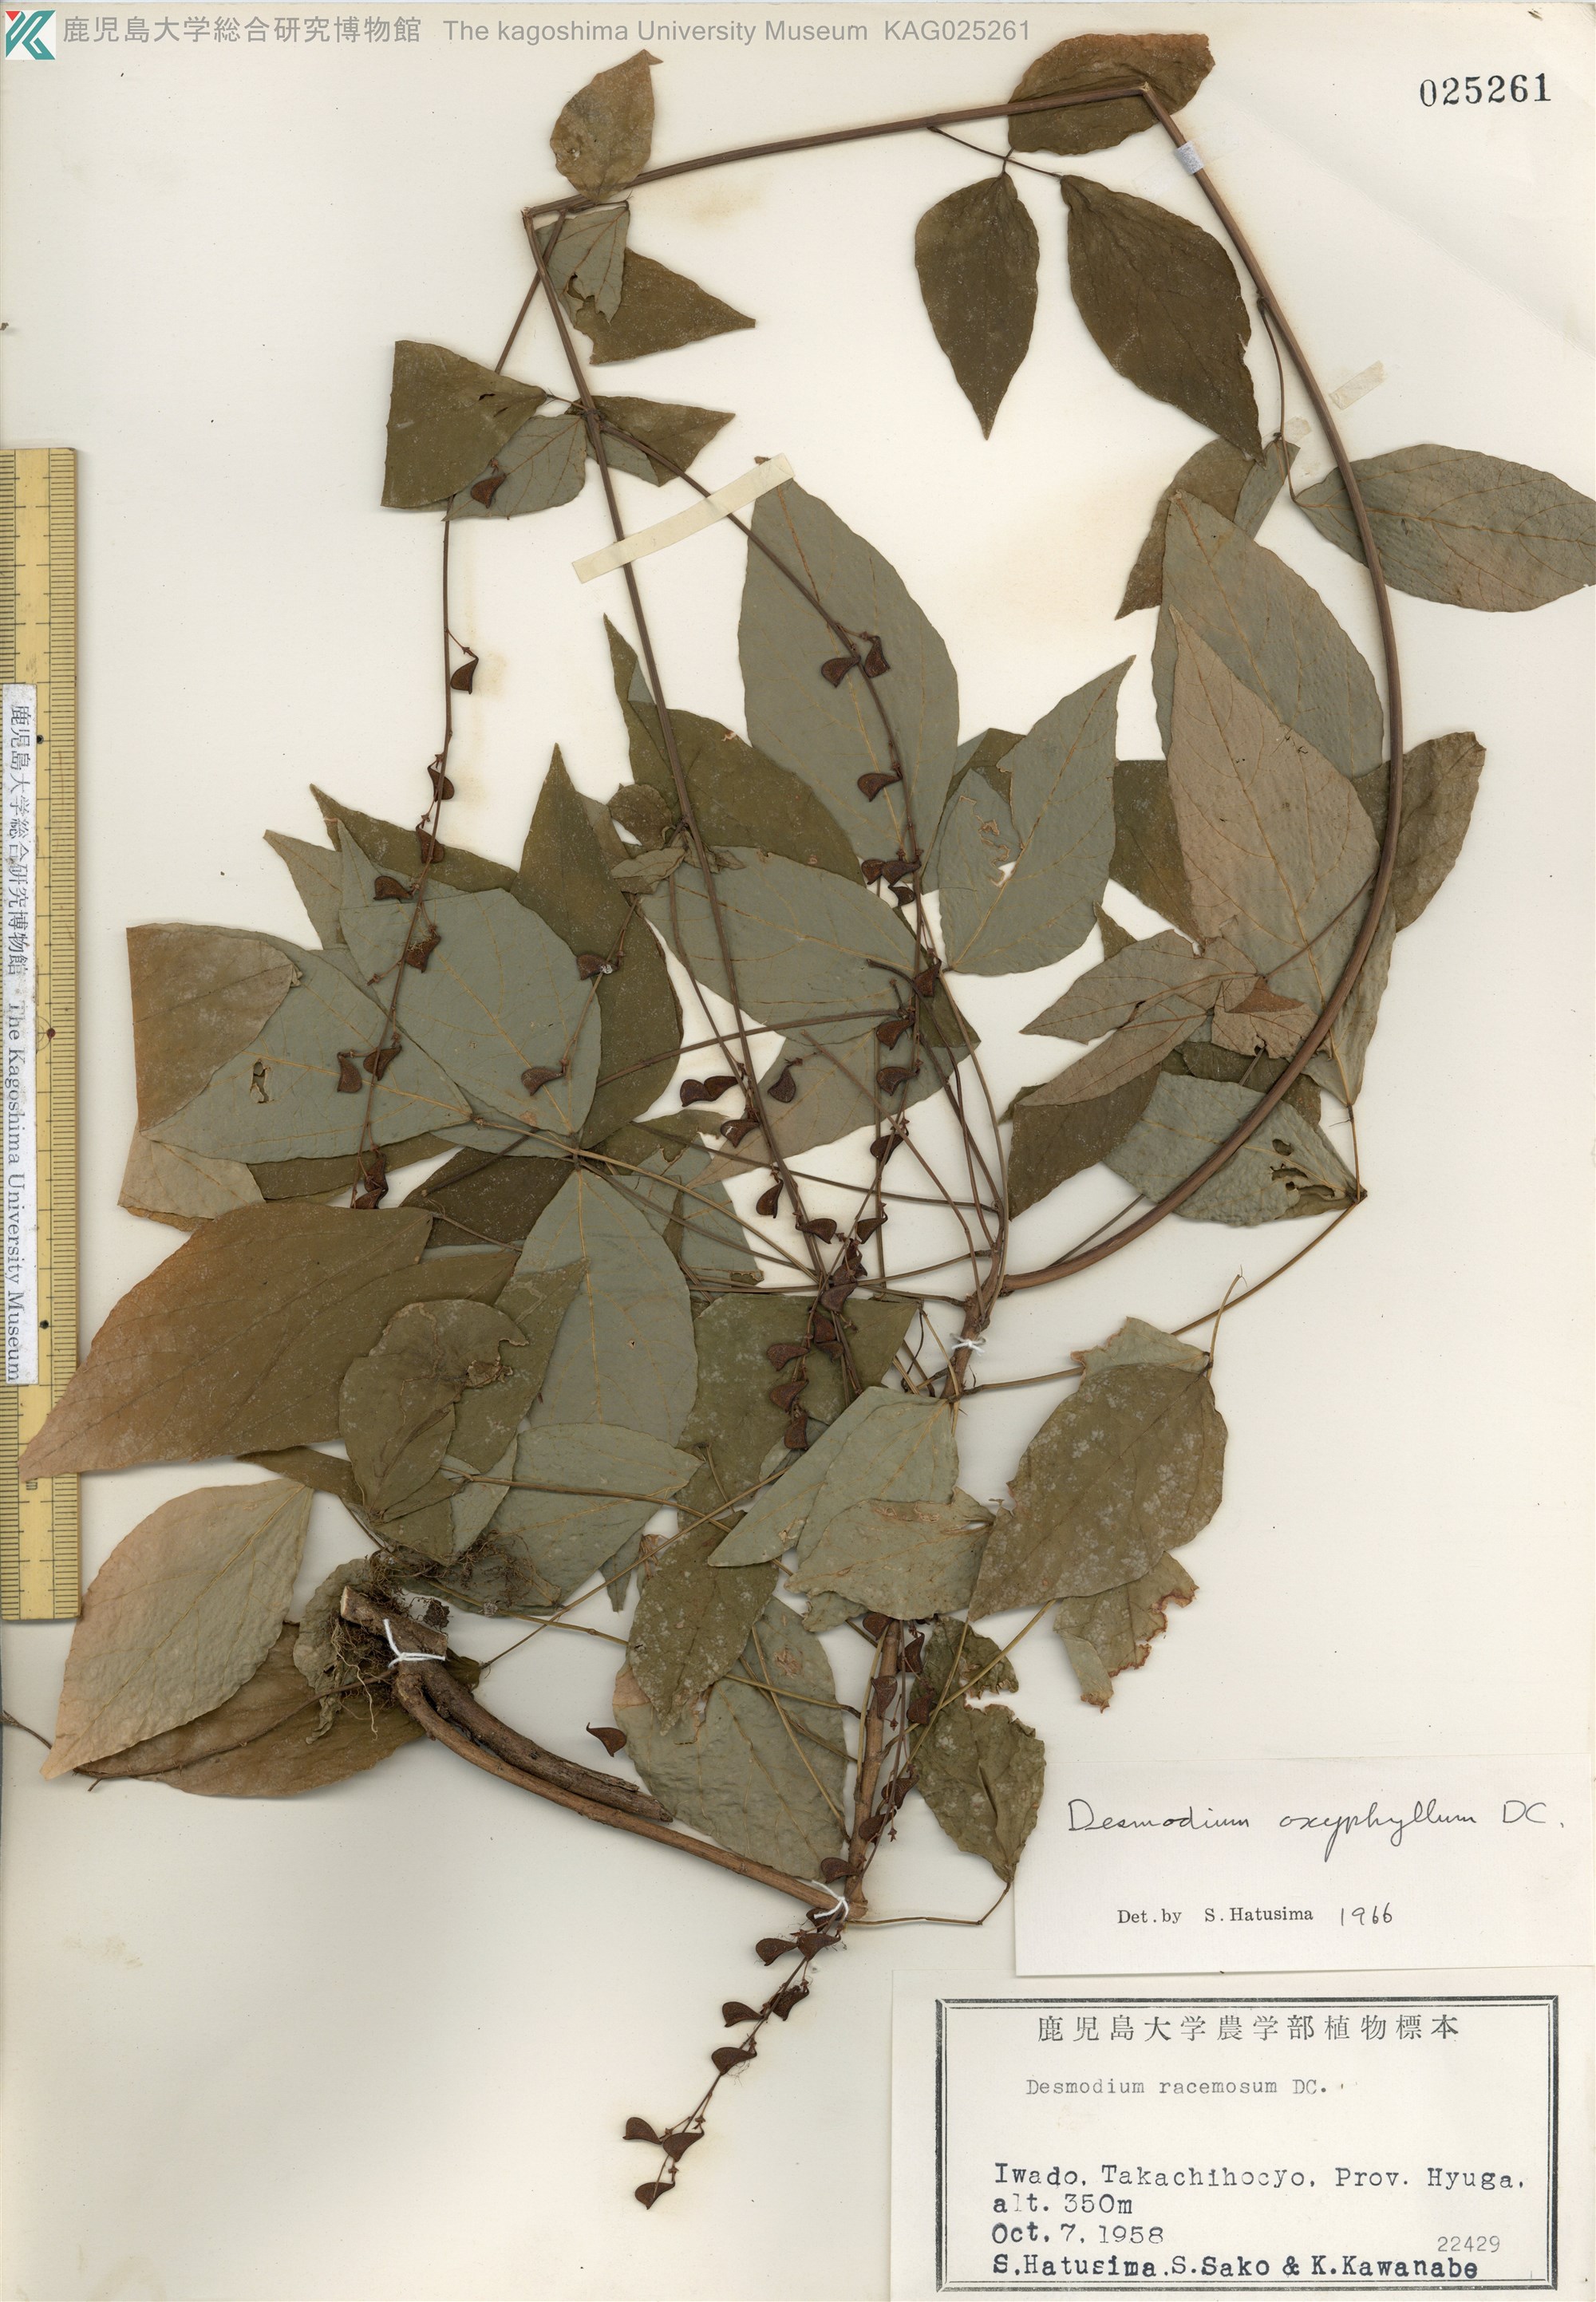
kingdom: Plantae
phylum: Tracheophyta
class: Magnoliopsida
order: Fabales
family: Fabaceae
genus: Hylodesmum
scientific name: Hylodesmum podocarpum
